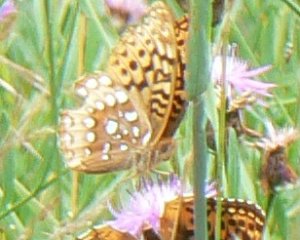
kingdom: Animalia
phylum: Arthropoda
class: Insecta
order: Lepidoptera
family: Nymphalidae
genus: Speyeria
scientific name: Speyeria cybele
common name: Great Spangled Fritillary
